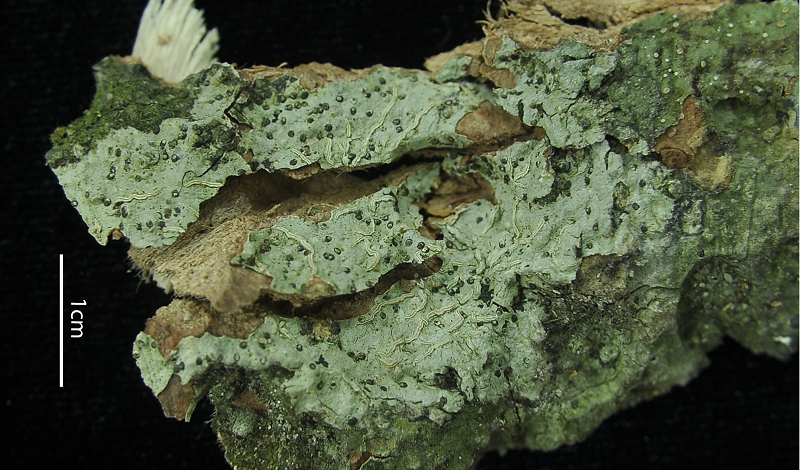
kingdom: Fungi
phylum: Ascomycota
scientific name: Ascomycota
